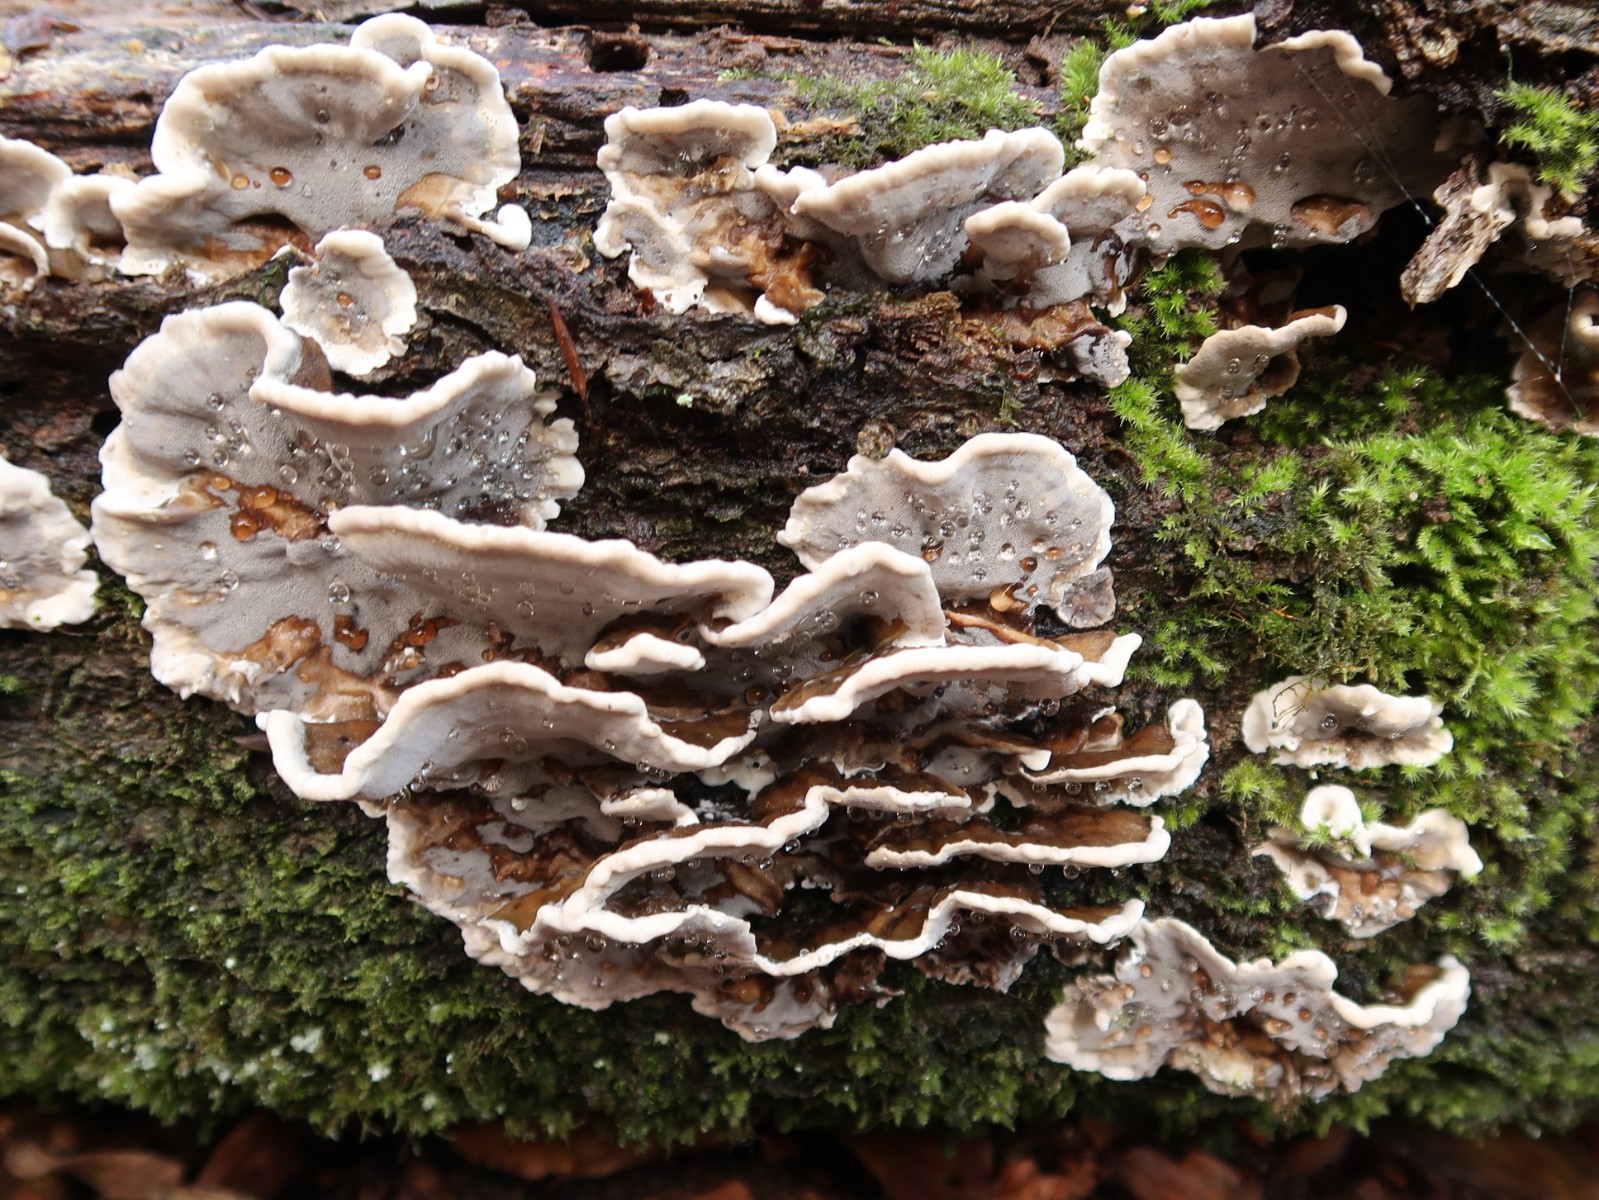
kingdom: Fungi
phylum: Basidiomycota
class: Agaricomycetes
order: Polyporales
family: Phanerochaetaceae
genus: Bjerkandera
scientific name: Bjerkandera adusta
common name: sveden sodporesvamp
